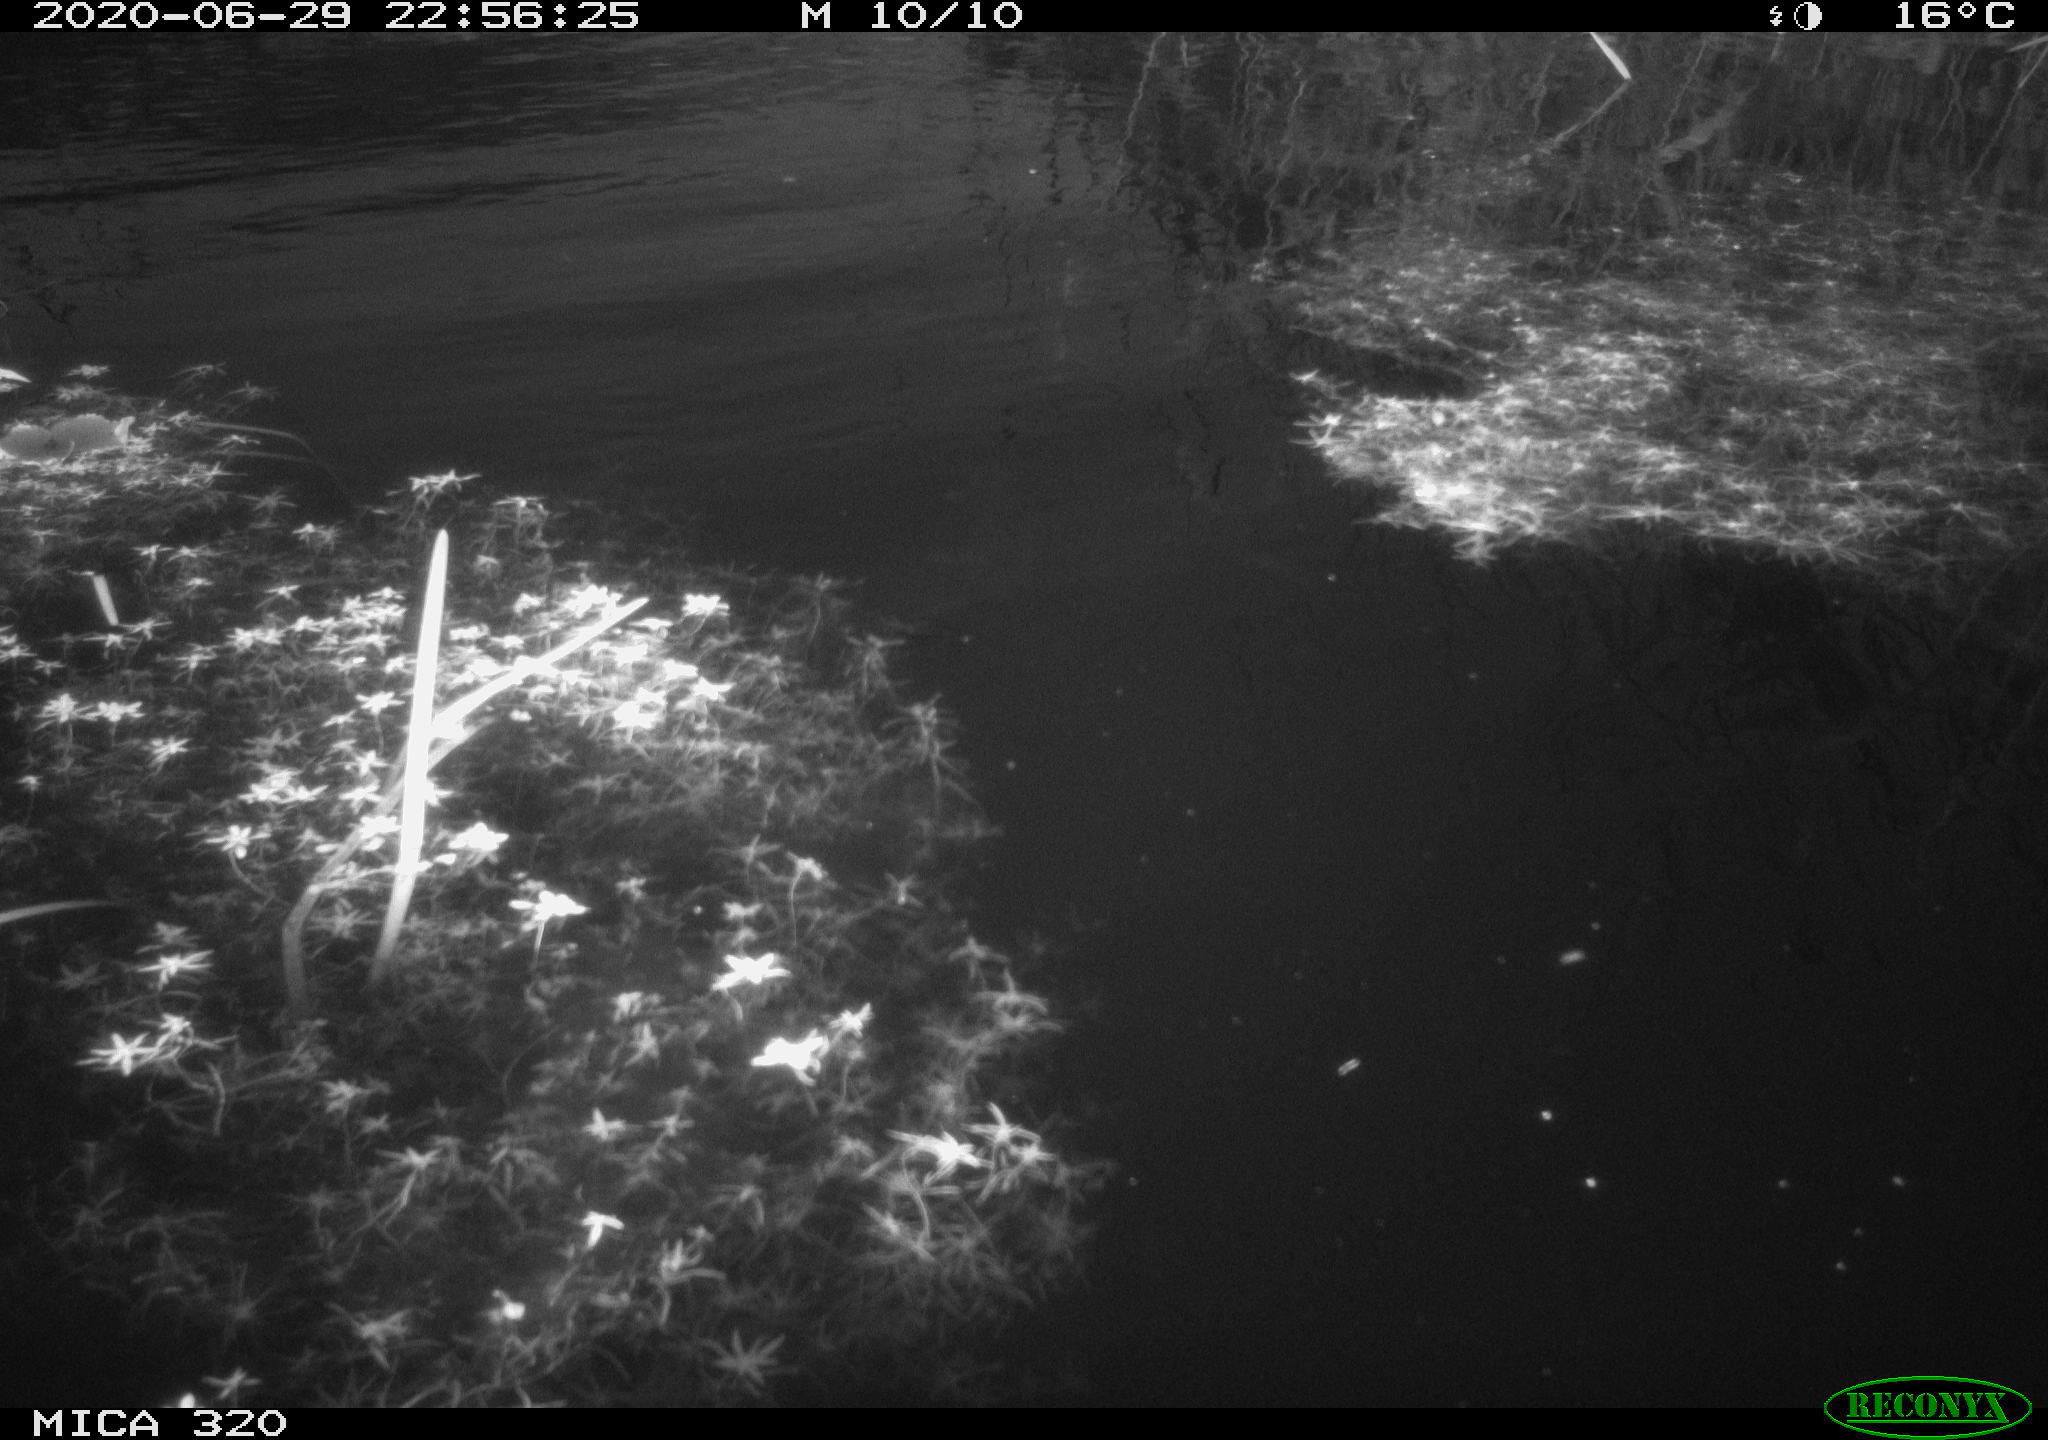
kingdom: Animalia
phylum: Chordata
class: Aves
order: Anseriformes
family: Anatidae
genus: Anas
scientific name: Anas platyrhynchos
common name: Mallard
